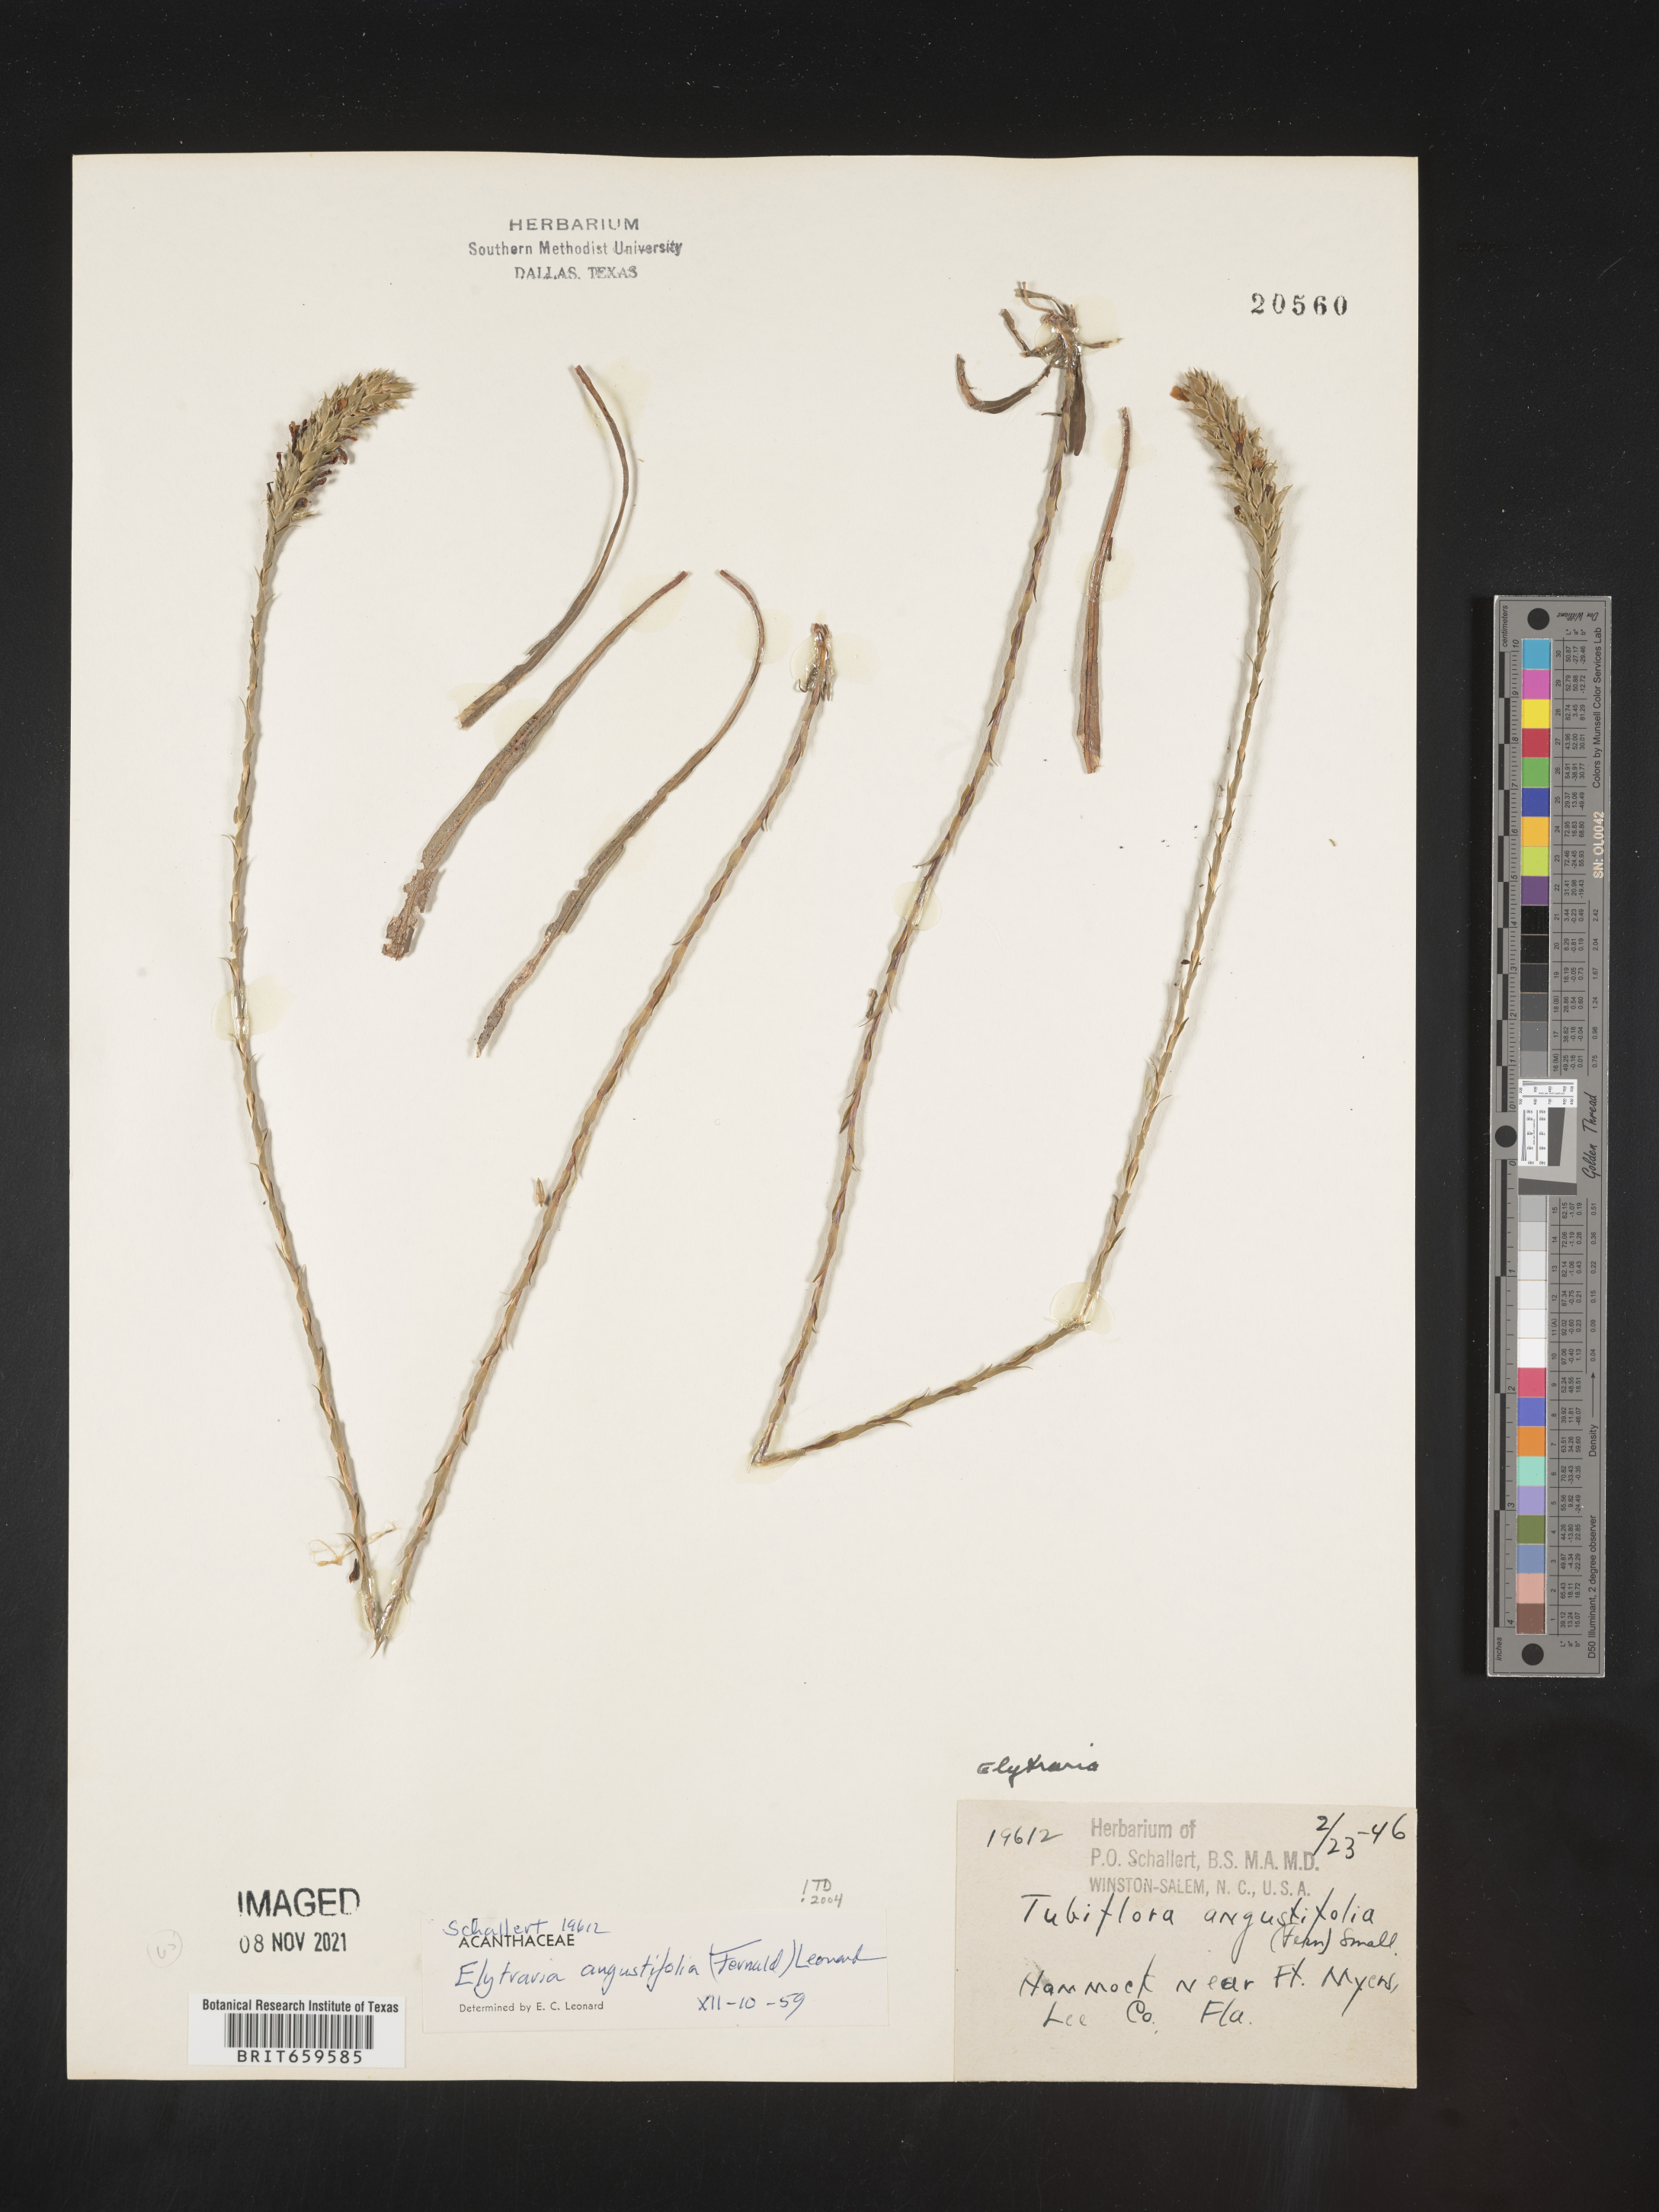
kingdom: Plantae
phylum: Tracheophyta
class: Magnoliopsida
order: Lamiales
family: Acanthaceae
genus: Elytraria
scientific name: Elytraria imbricata
